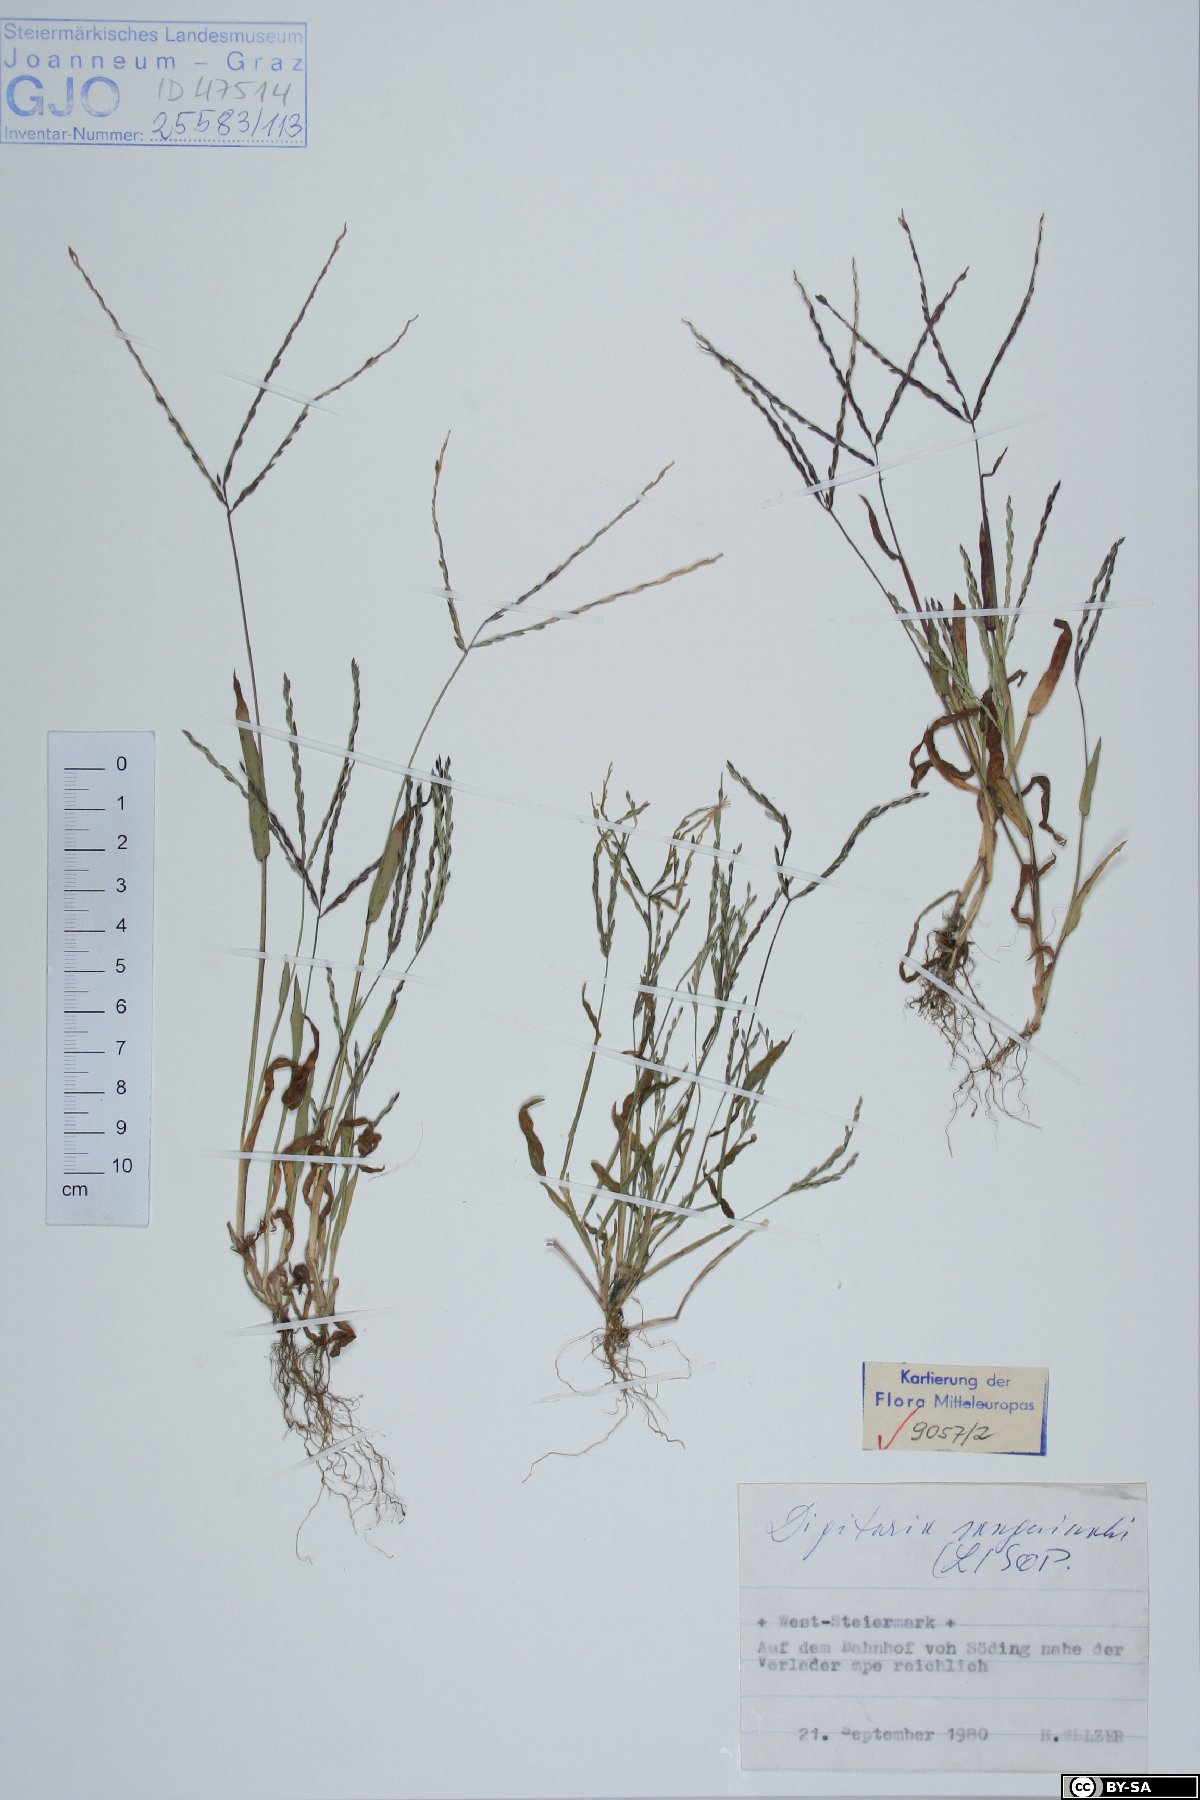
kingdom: Plantae
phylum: Tracheophyta
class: Liliopsida
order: Poales
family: Poaceae
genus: Digitaria
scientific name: Digitaria sanguinalis
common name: Hairy crabgrass
